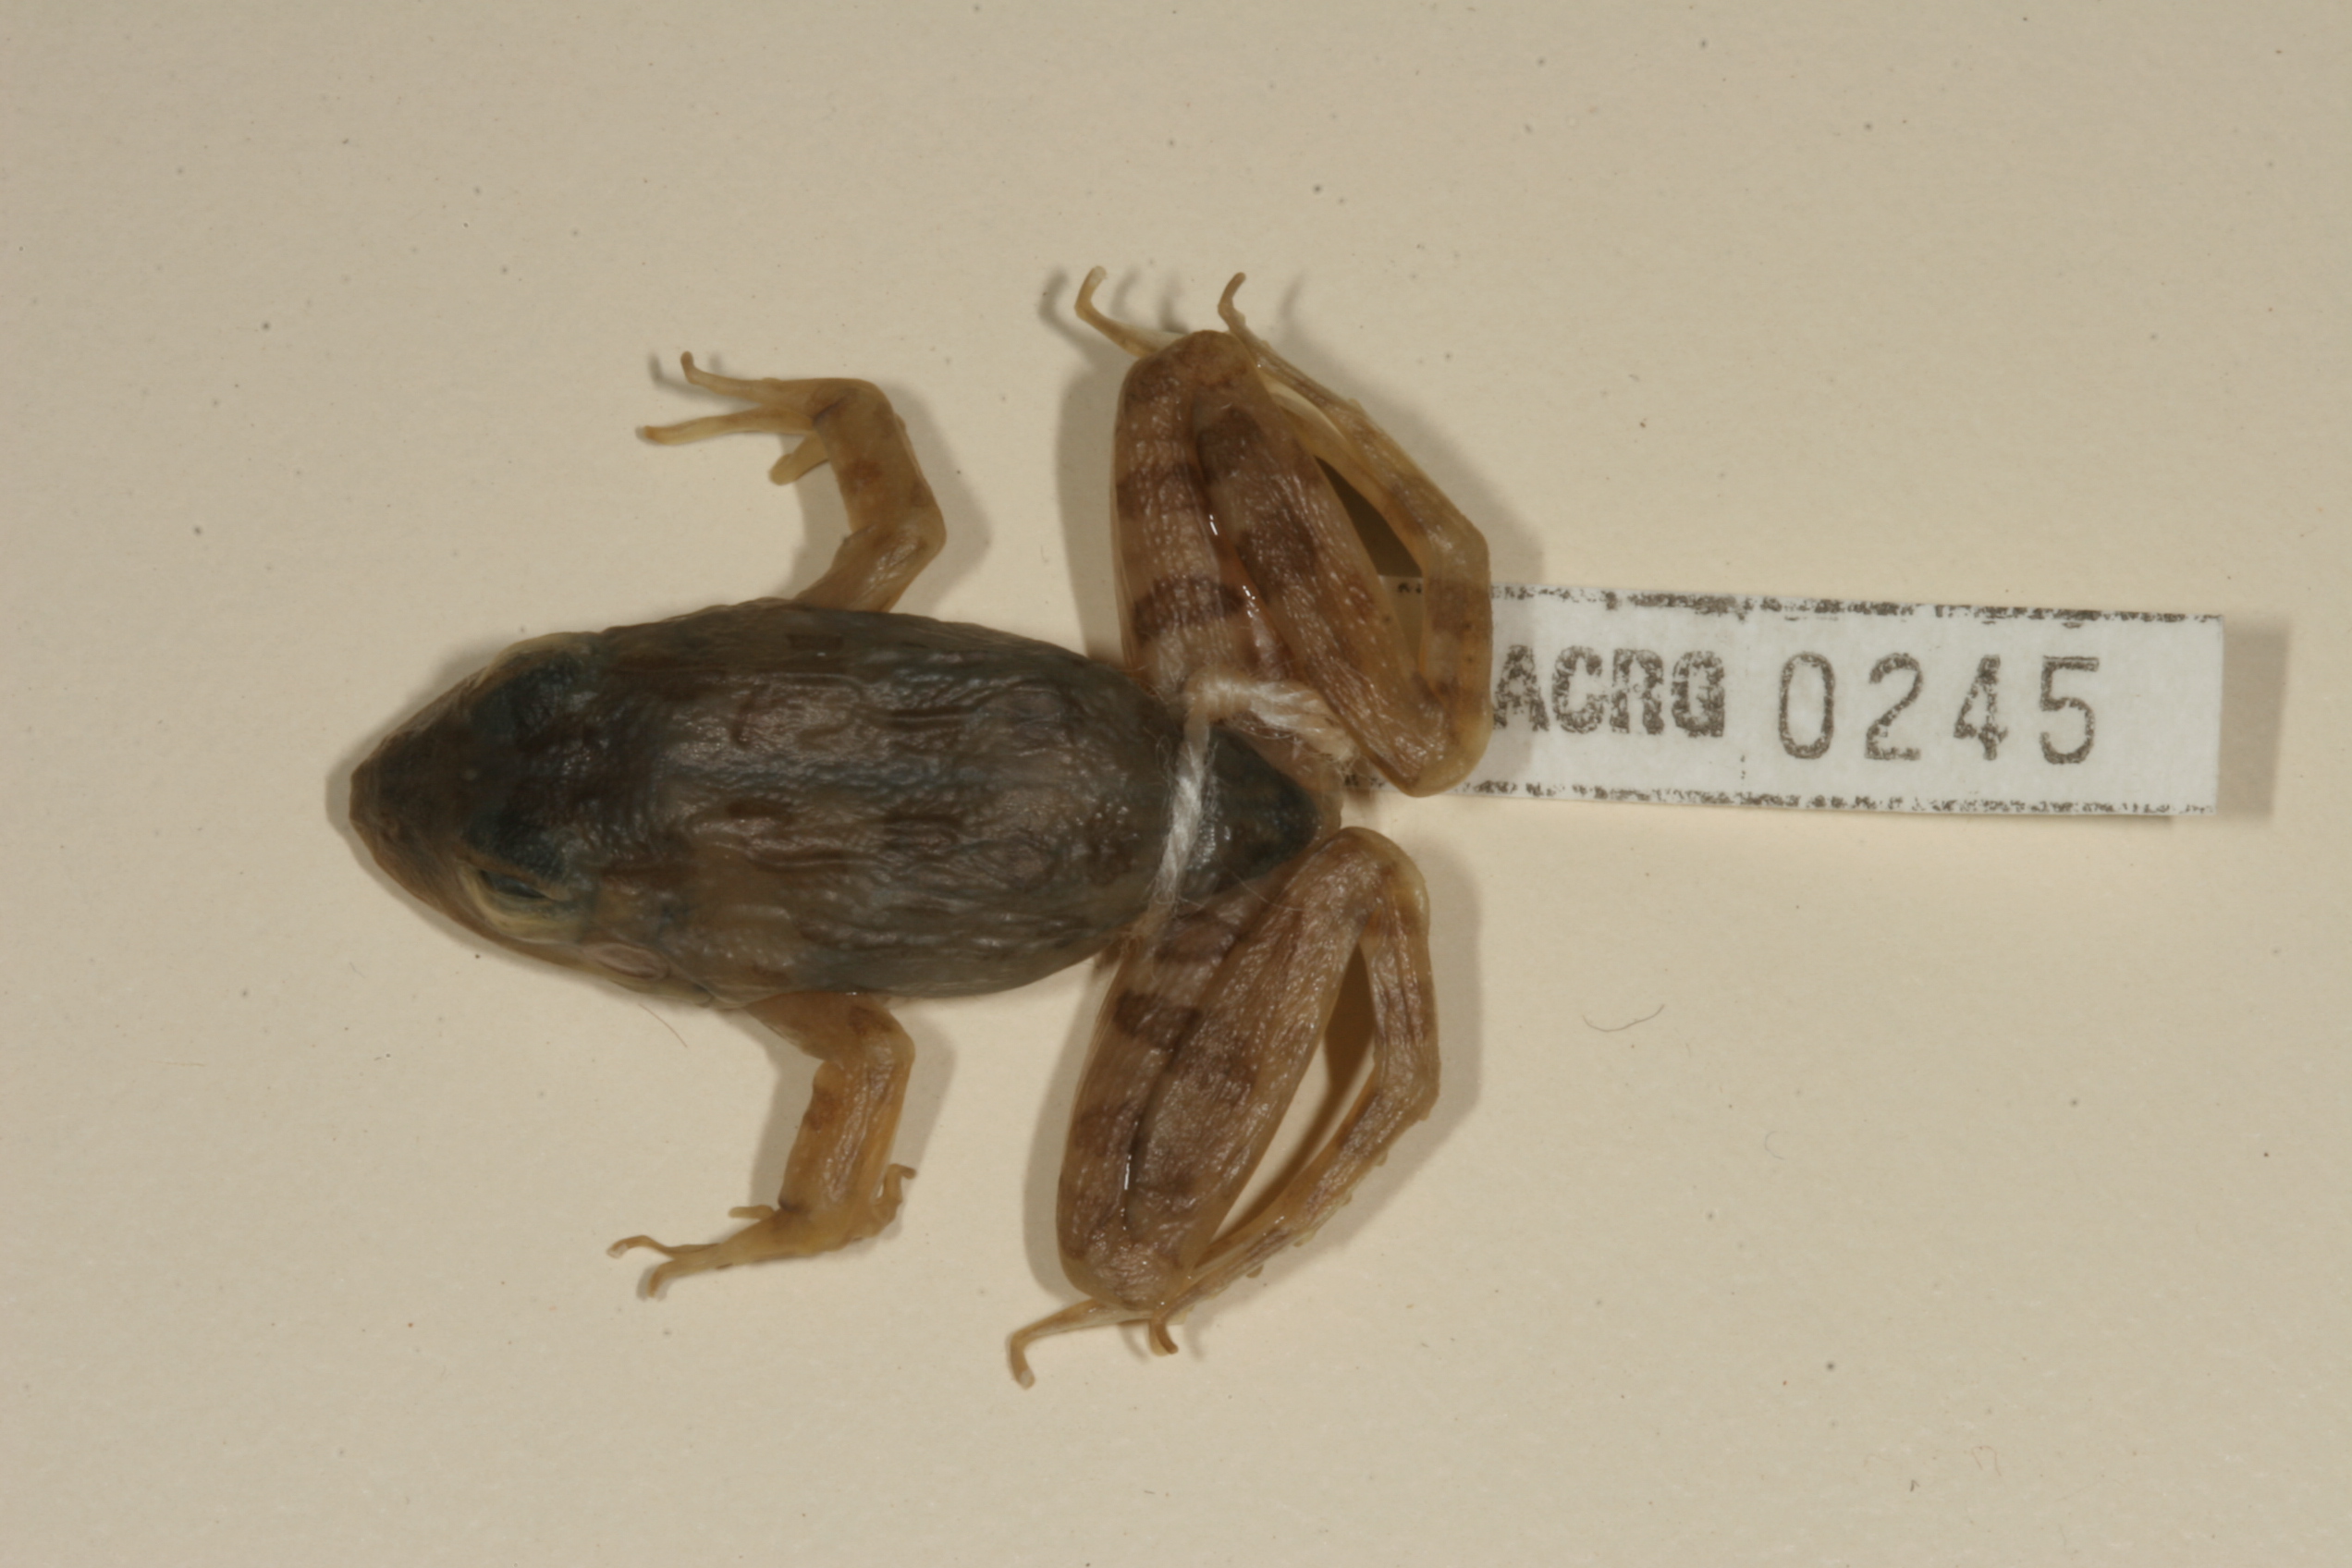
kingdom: Animalia
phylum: Chordata
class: Amphibia
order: Anura
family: Pyxicephalidae
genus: Amietia
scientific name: Amietia fuscigula
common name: Cape rana
